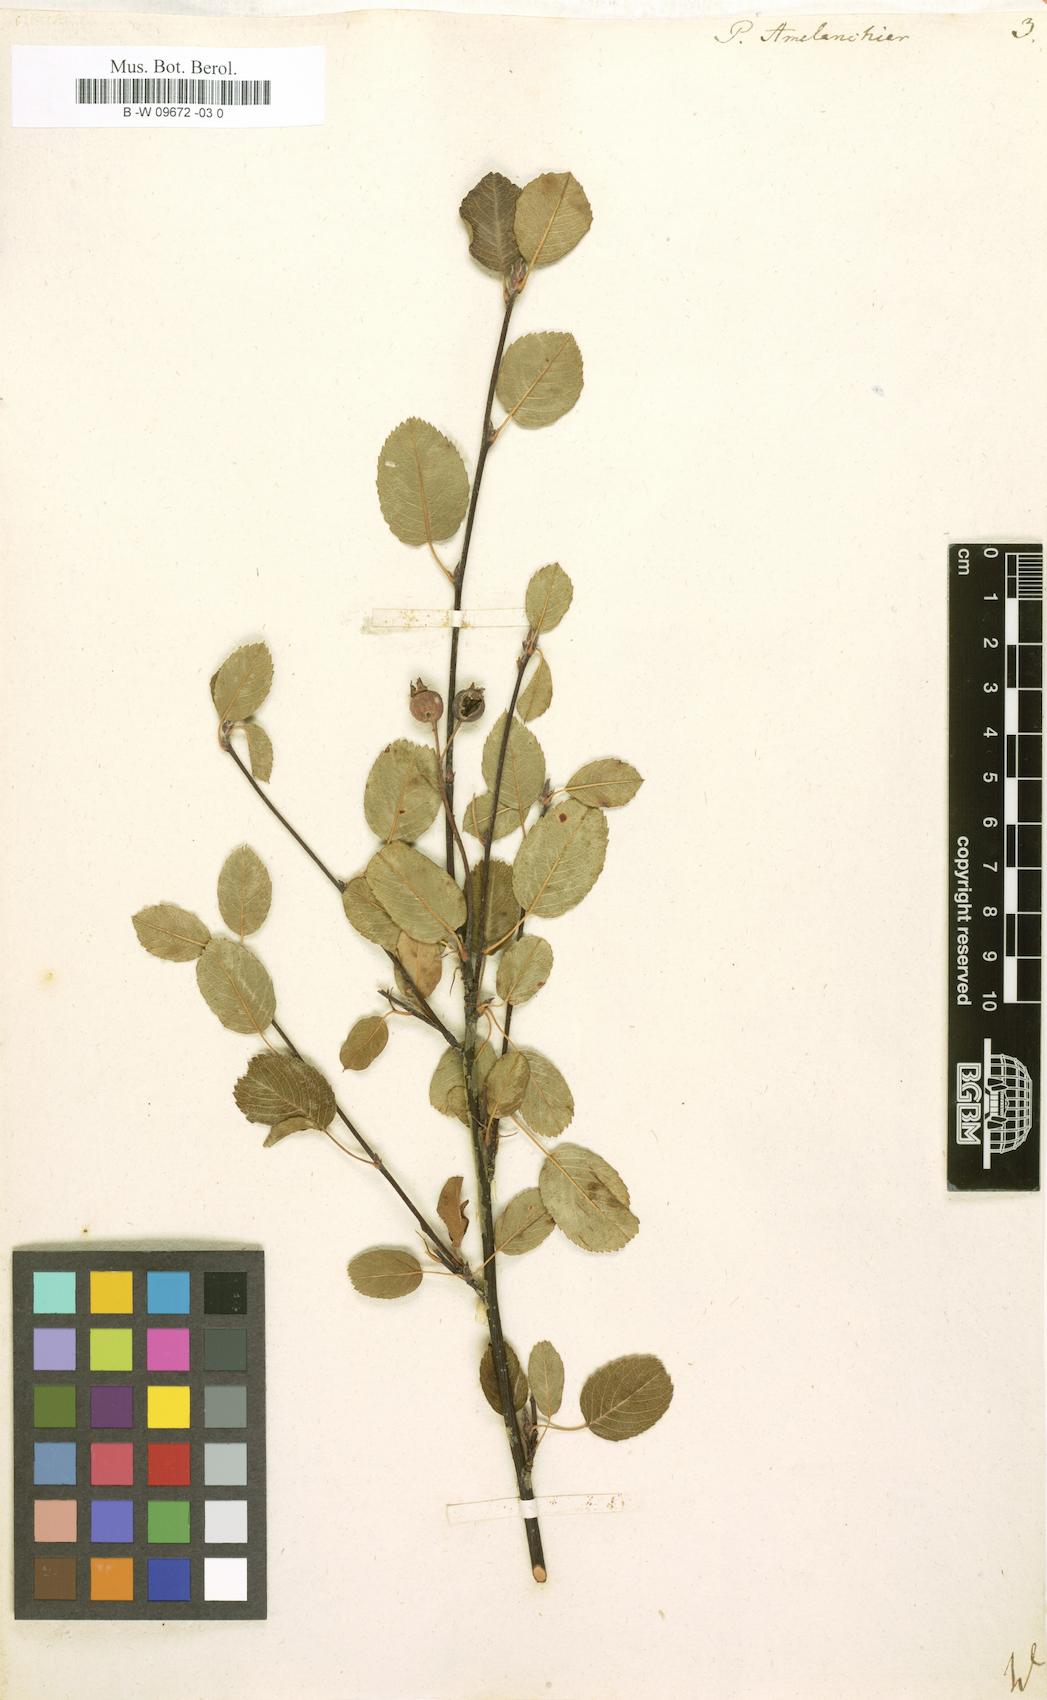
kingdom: Plantae
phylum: Tracheophyta
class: Magnoliopsida
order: Rosales
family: Rosaceae
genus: Pyrus
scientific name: Pyrus amelanchier
